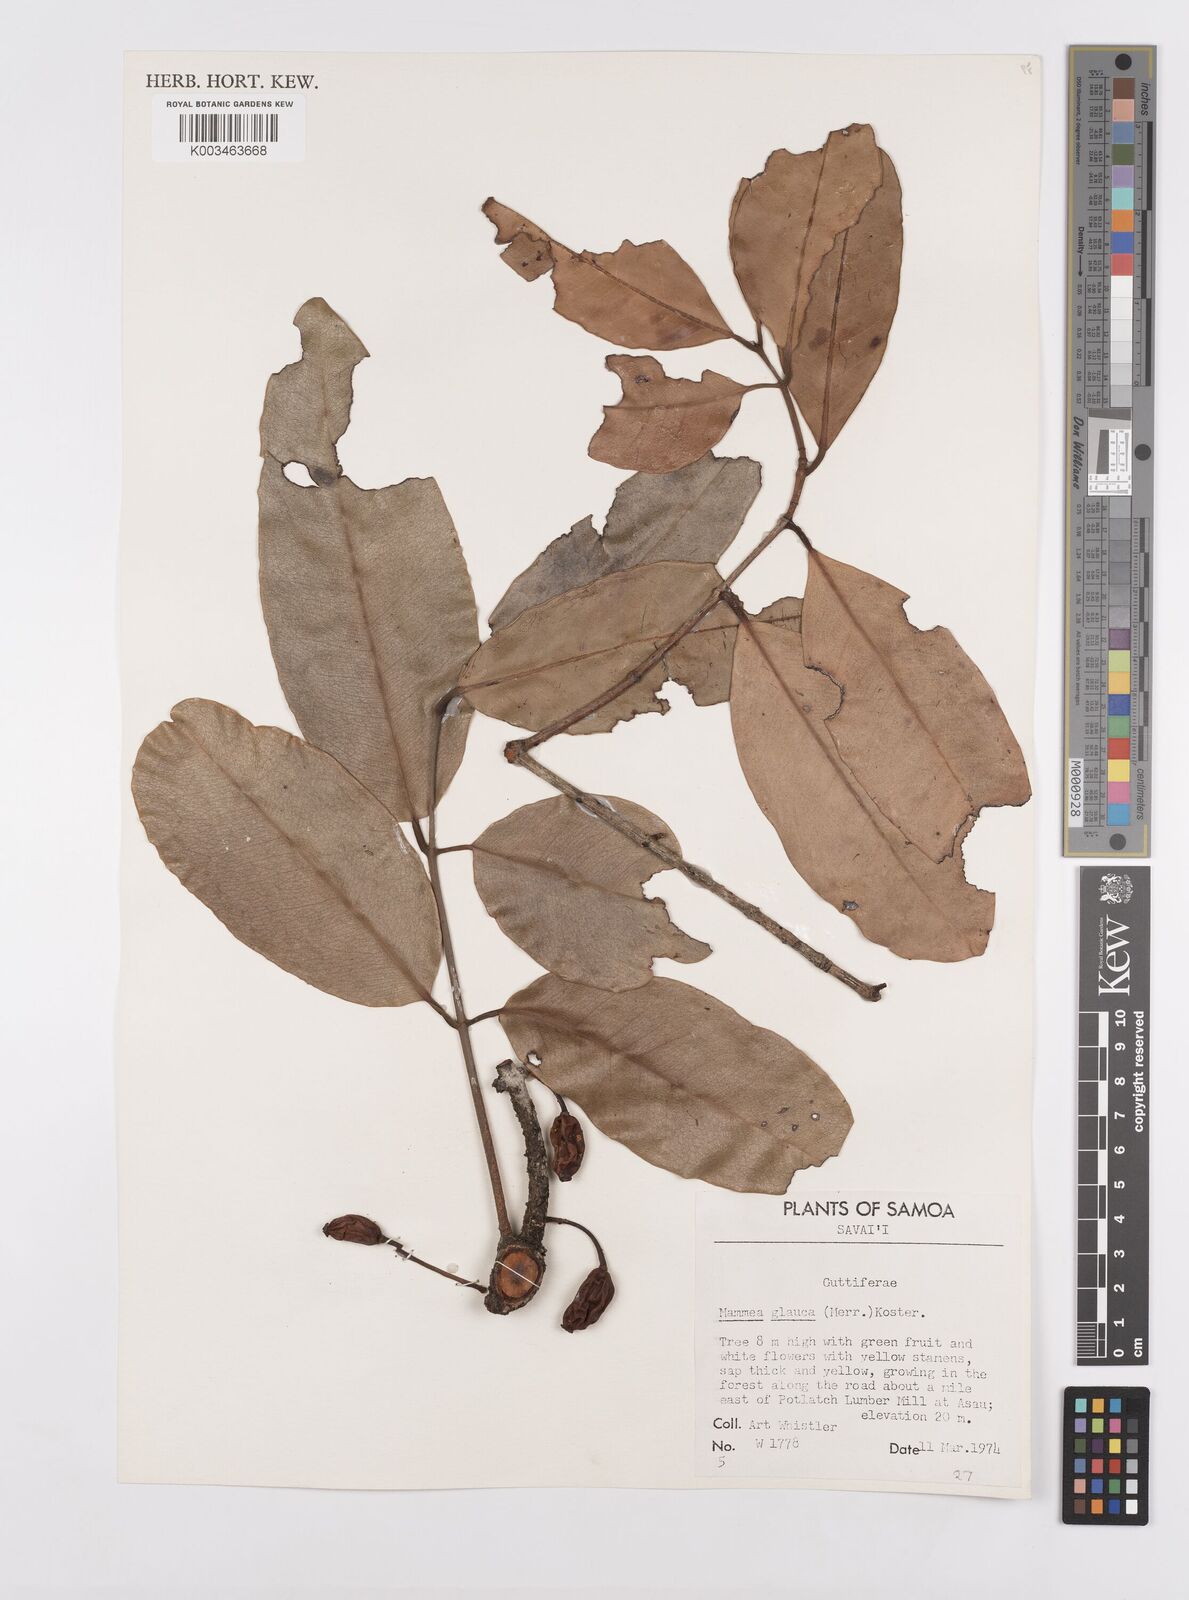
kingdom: Plantae
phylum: Tracheophyta
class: Magnoliopsida
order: Malpighiales
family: Calophyllaceae
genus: Mammea
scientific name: Mammea glauca
